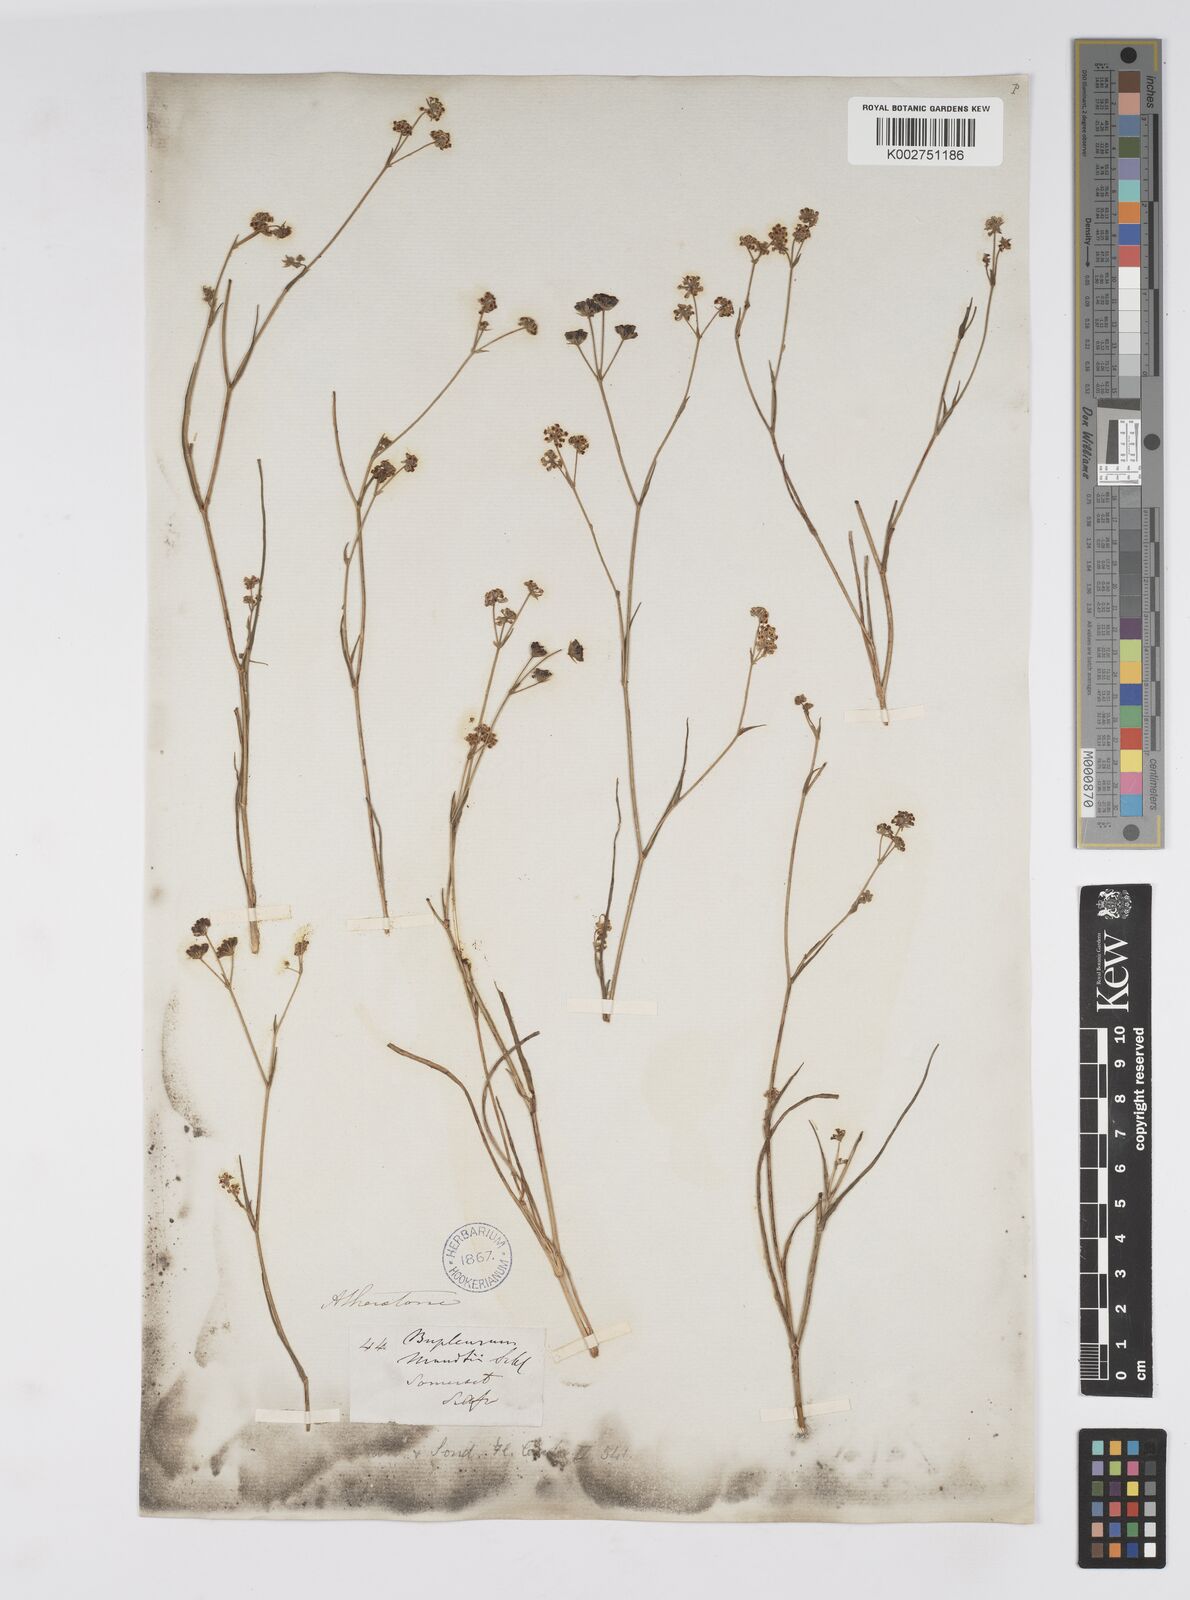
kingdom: Plantae
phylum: Tracheophyta
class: Magnoliopsida
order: Apiales
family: Apiaceae
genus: Bupleurum
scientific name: Bupleurum mundii
